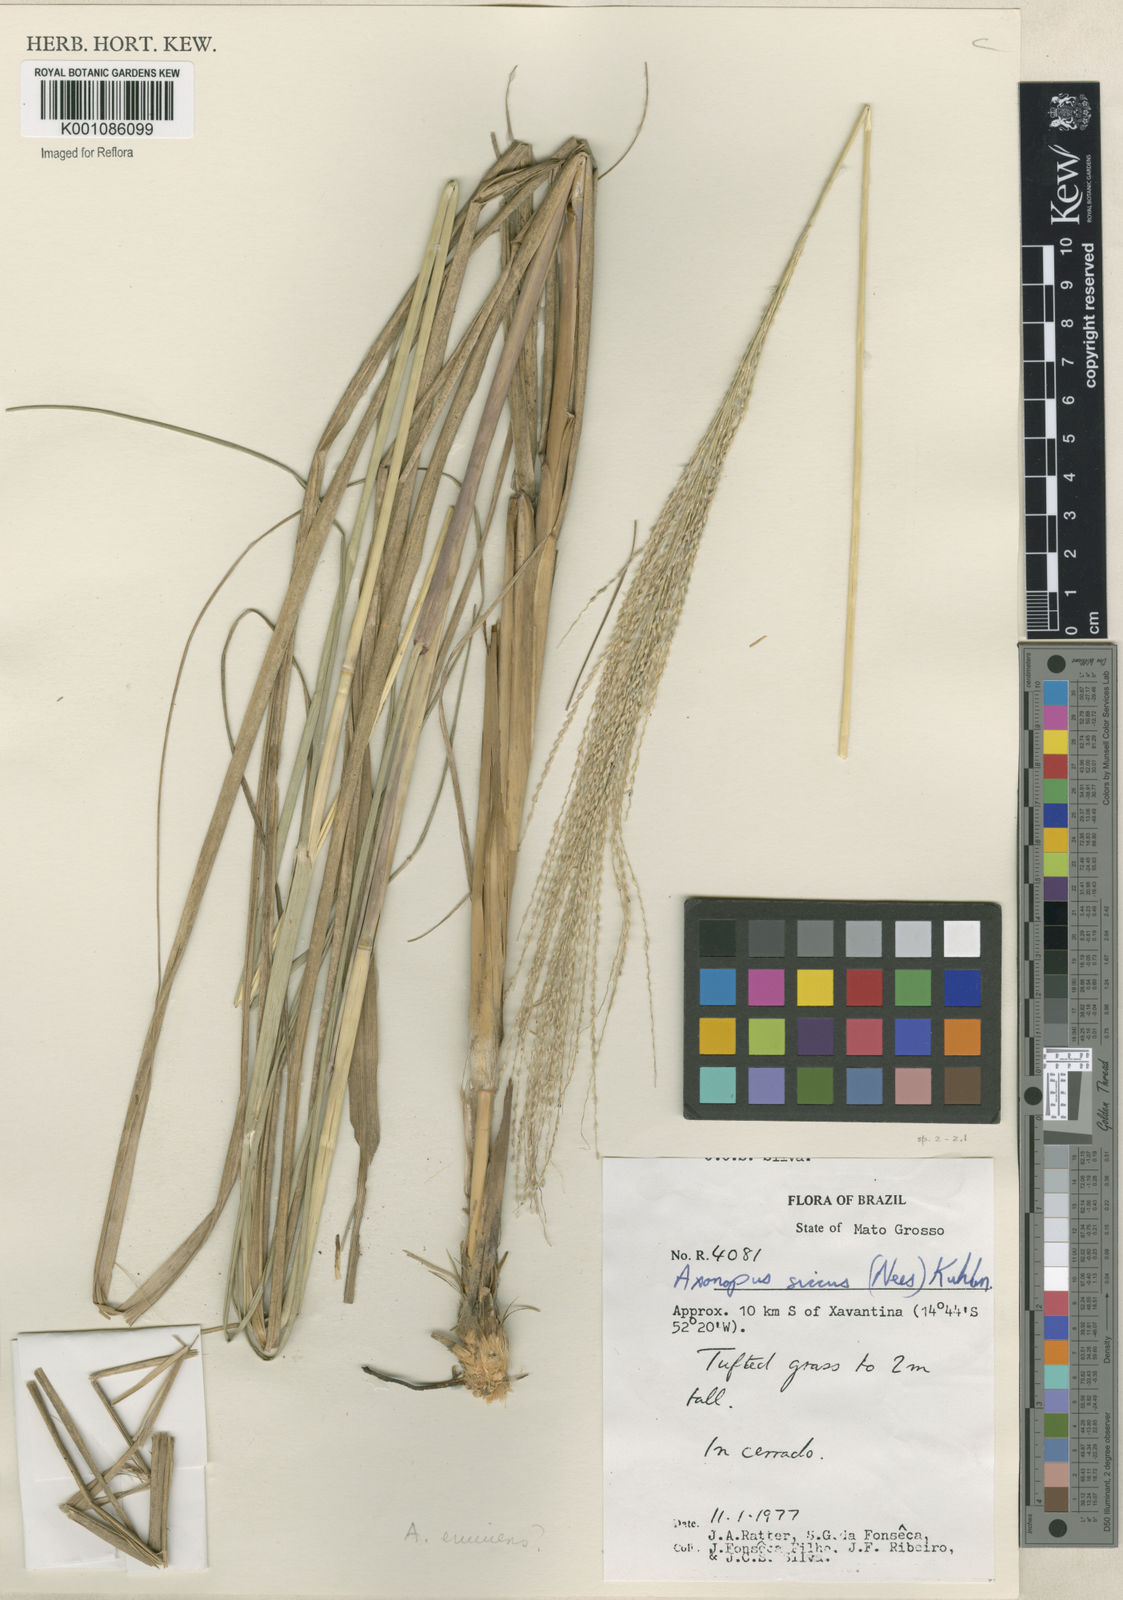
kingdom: Plantae
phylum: Tracheophyta
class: Liliopsida
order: Poales
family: Poaceae
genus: Axonopus
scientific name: Axonopus eminens
